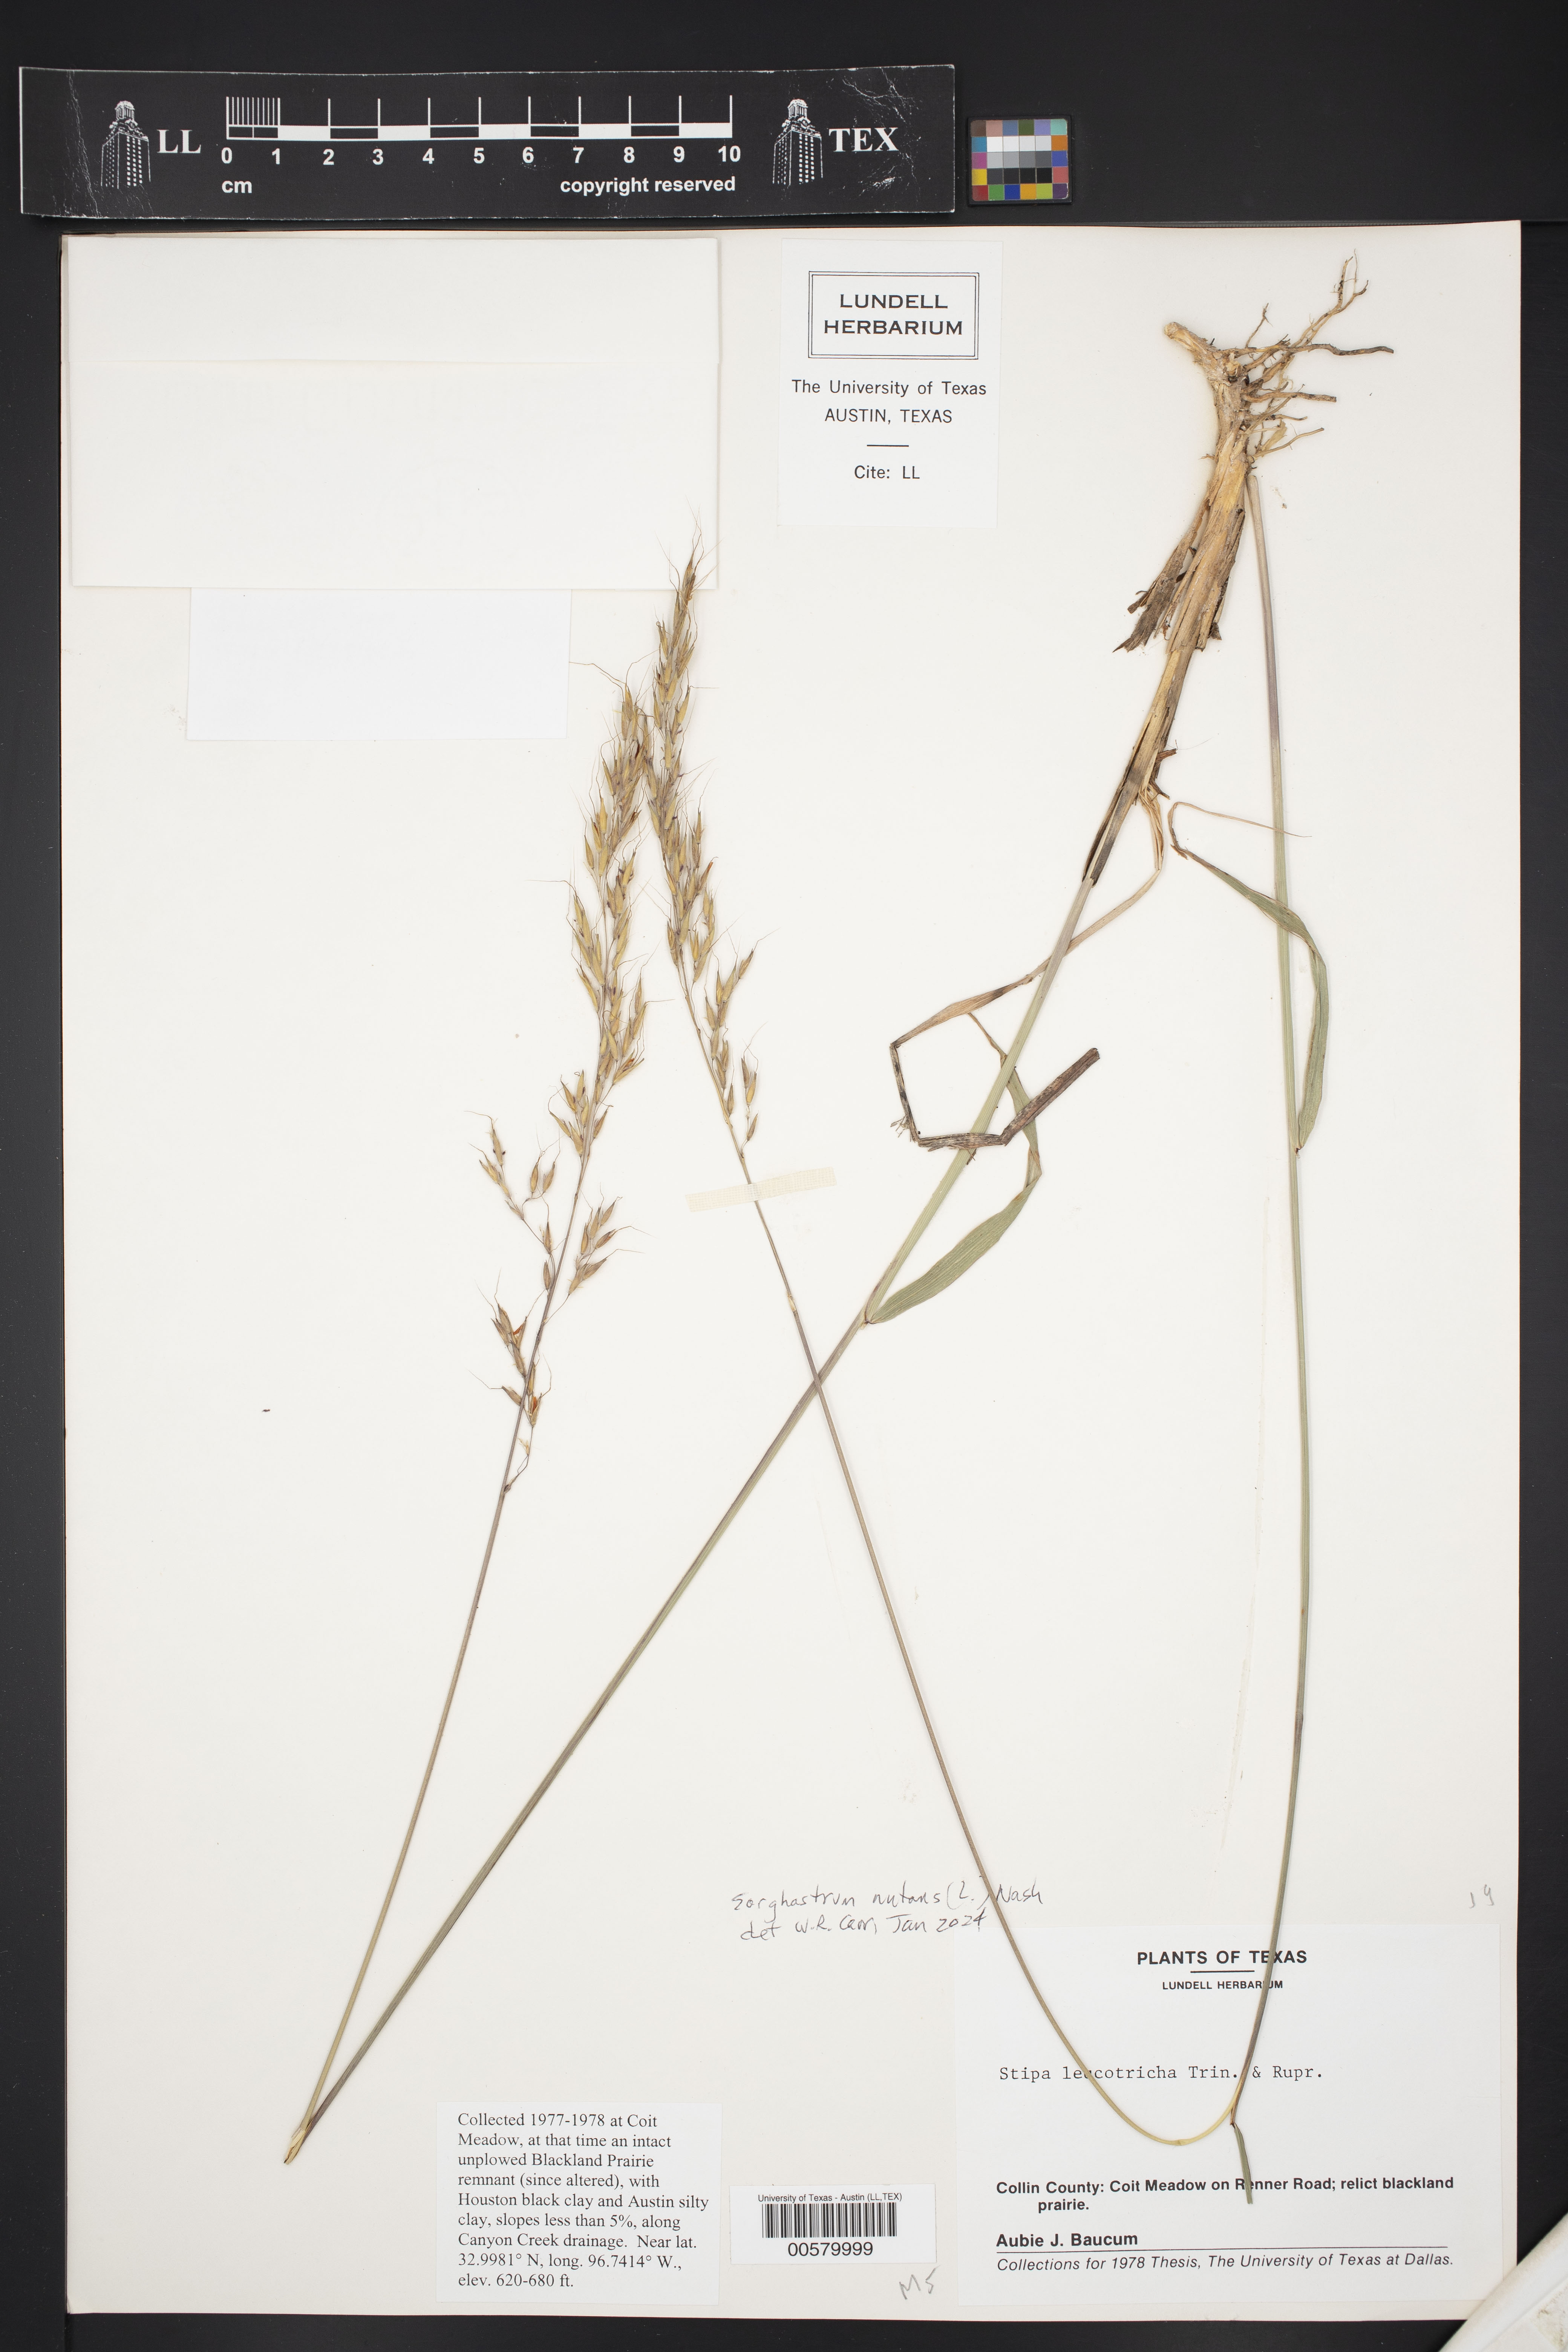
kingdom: Plantae
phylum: Tracheophyta
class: Liliopsida
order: Poales
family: Poaceae
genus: Sorghastrum
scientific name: Sorghastrum nutans
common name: Indian grass
